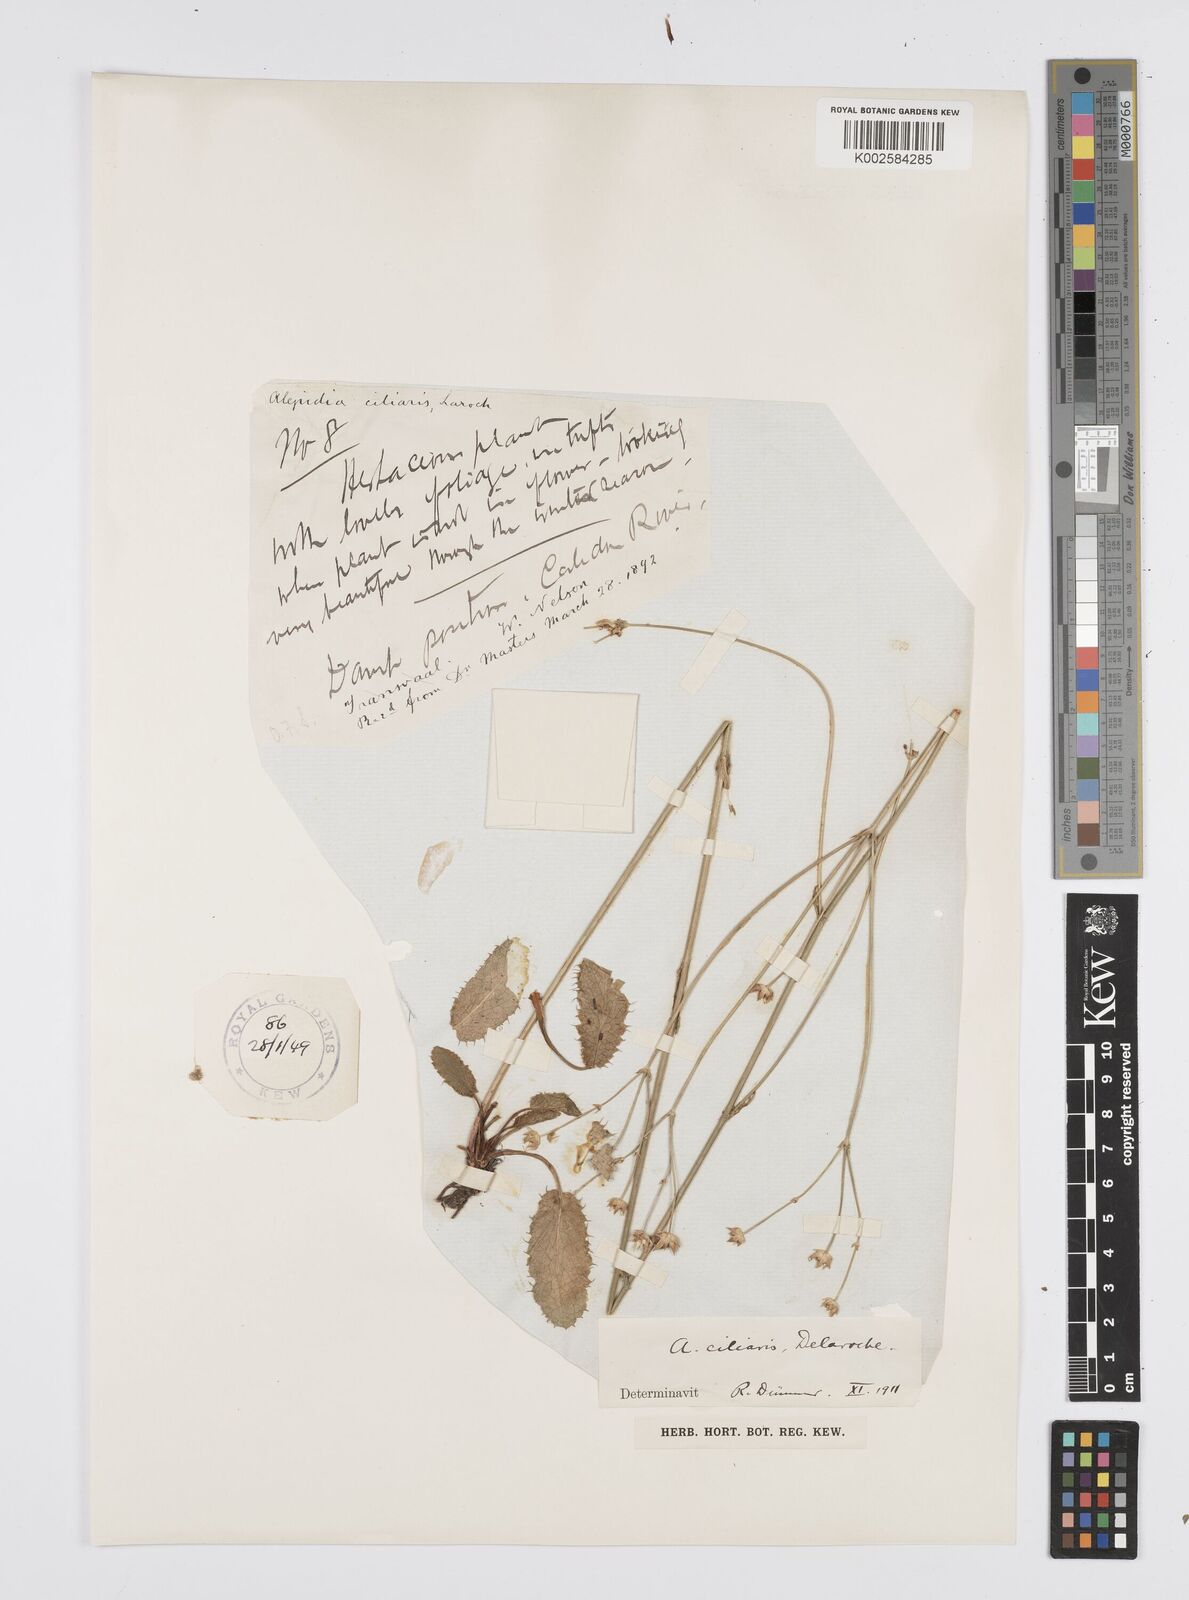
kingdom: Plantae
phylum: Tracheophyta
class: Magnoliopsida
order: Apiales
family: Apiaceae
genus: Alepidea
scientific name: Alepidea
